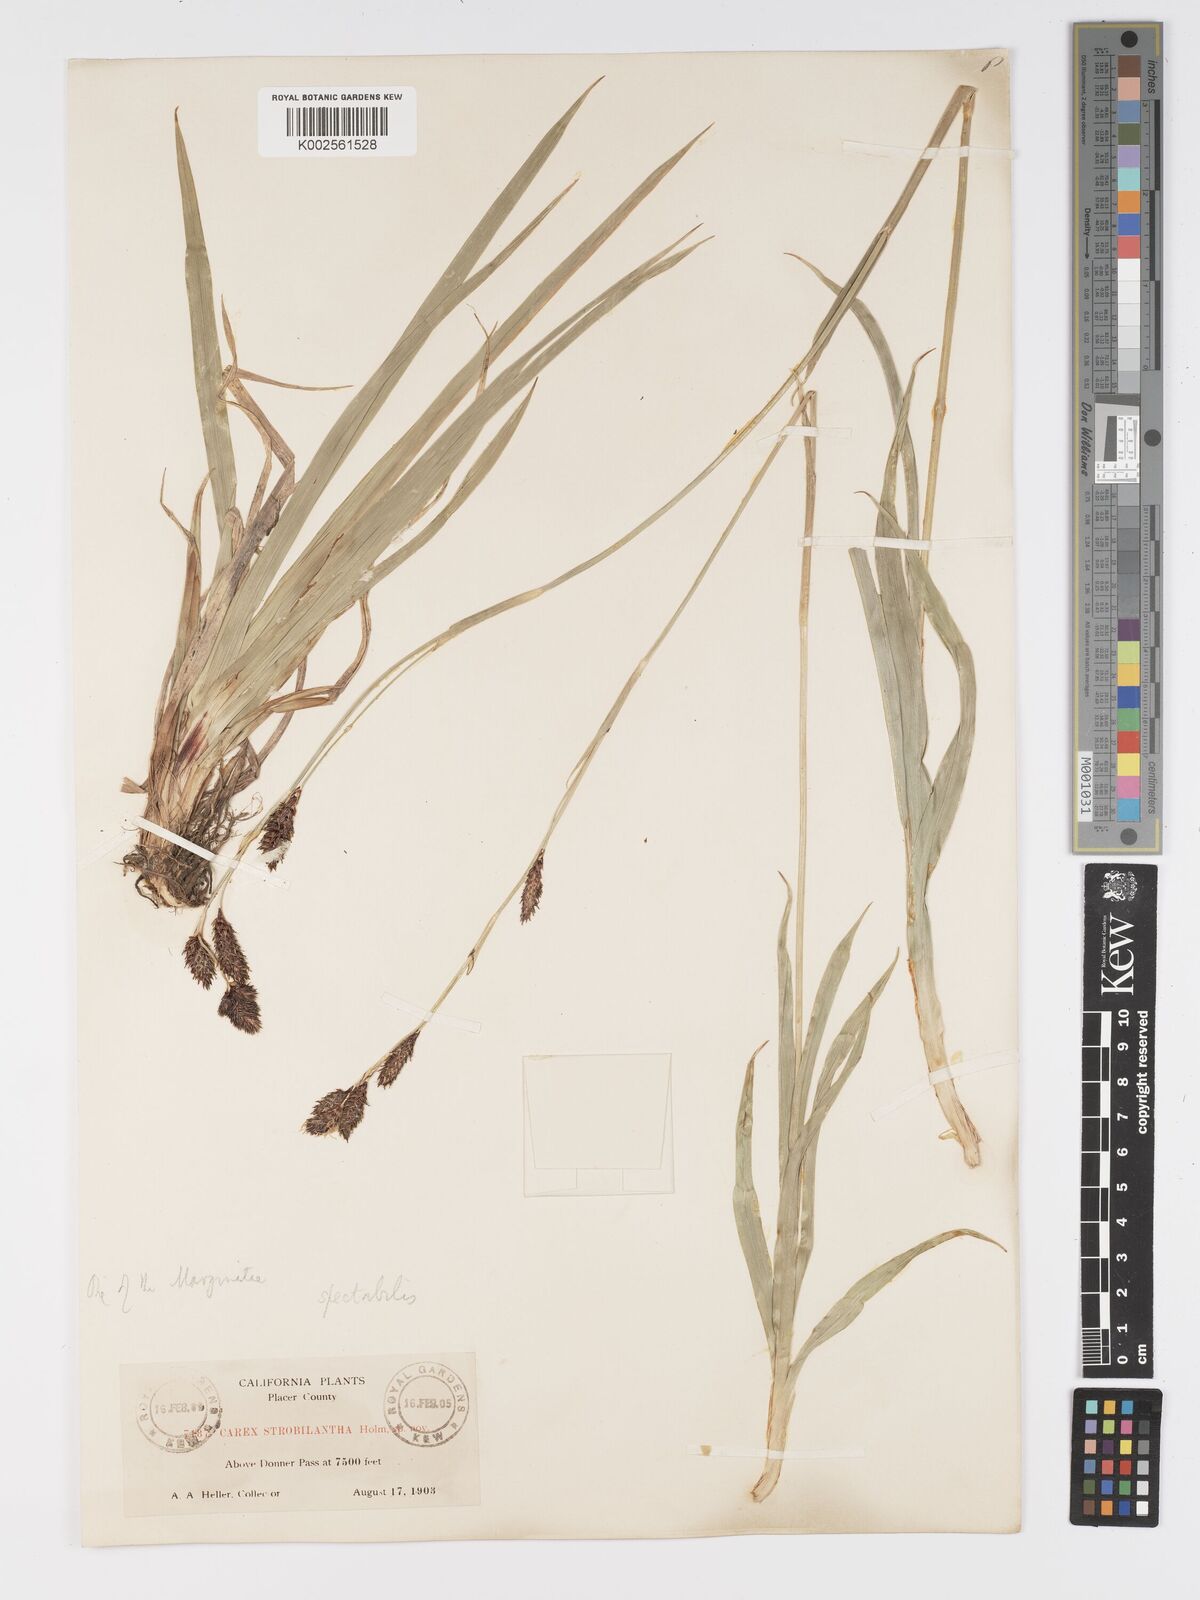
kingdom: Plantae
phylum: Tracheophyta
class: Liliopsida
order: Poales
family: Cyperaceae
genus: Carex
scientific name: Carex spectabilis
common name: Northwestern showy sedge
